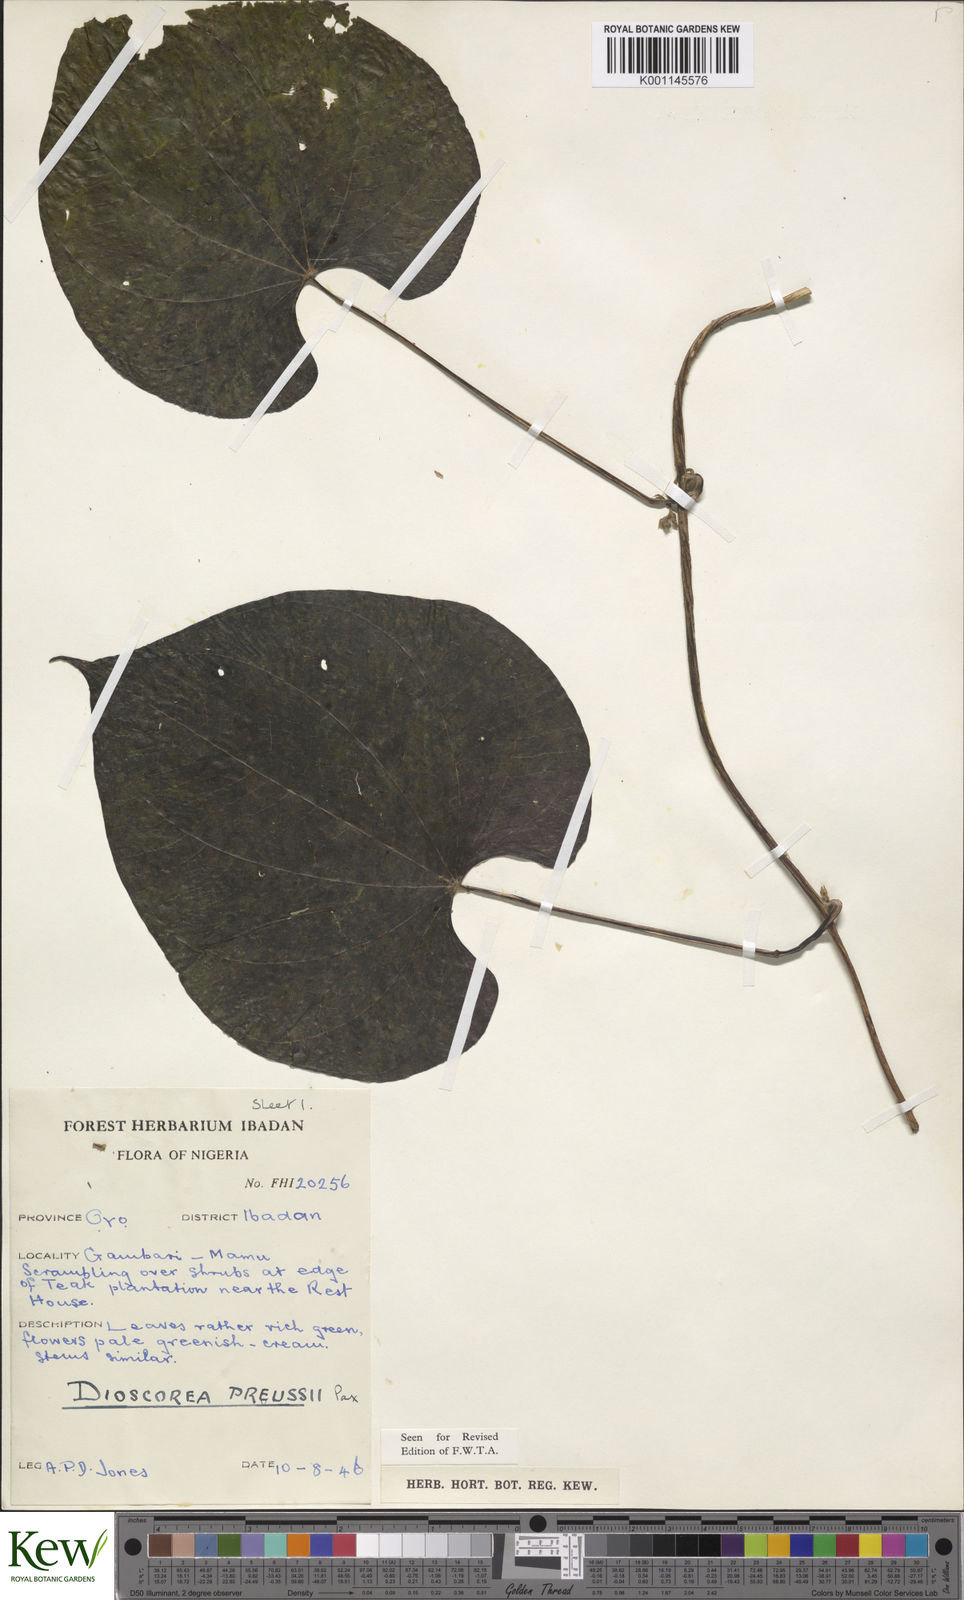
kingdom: Plantae
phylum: Tracheophyta
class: Liliopsida
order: Dioscoreales
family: Dioscoreaceae
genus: Dioscorea
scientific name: Dioscorea preussii
